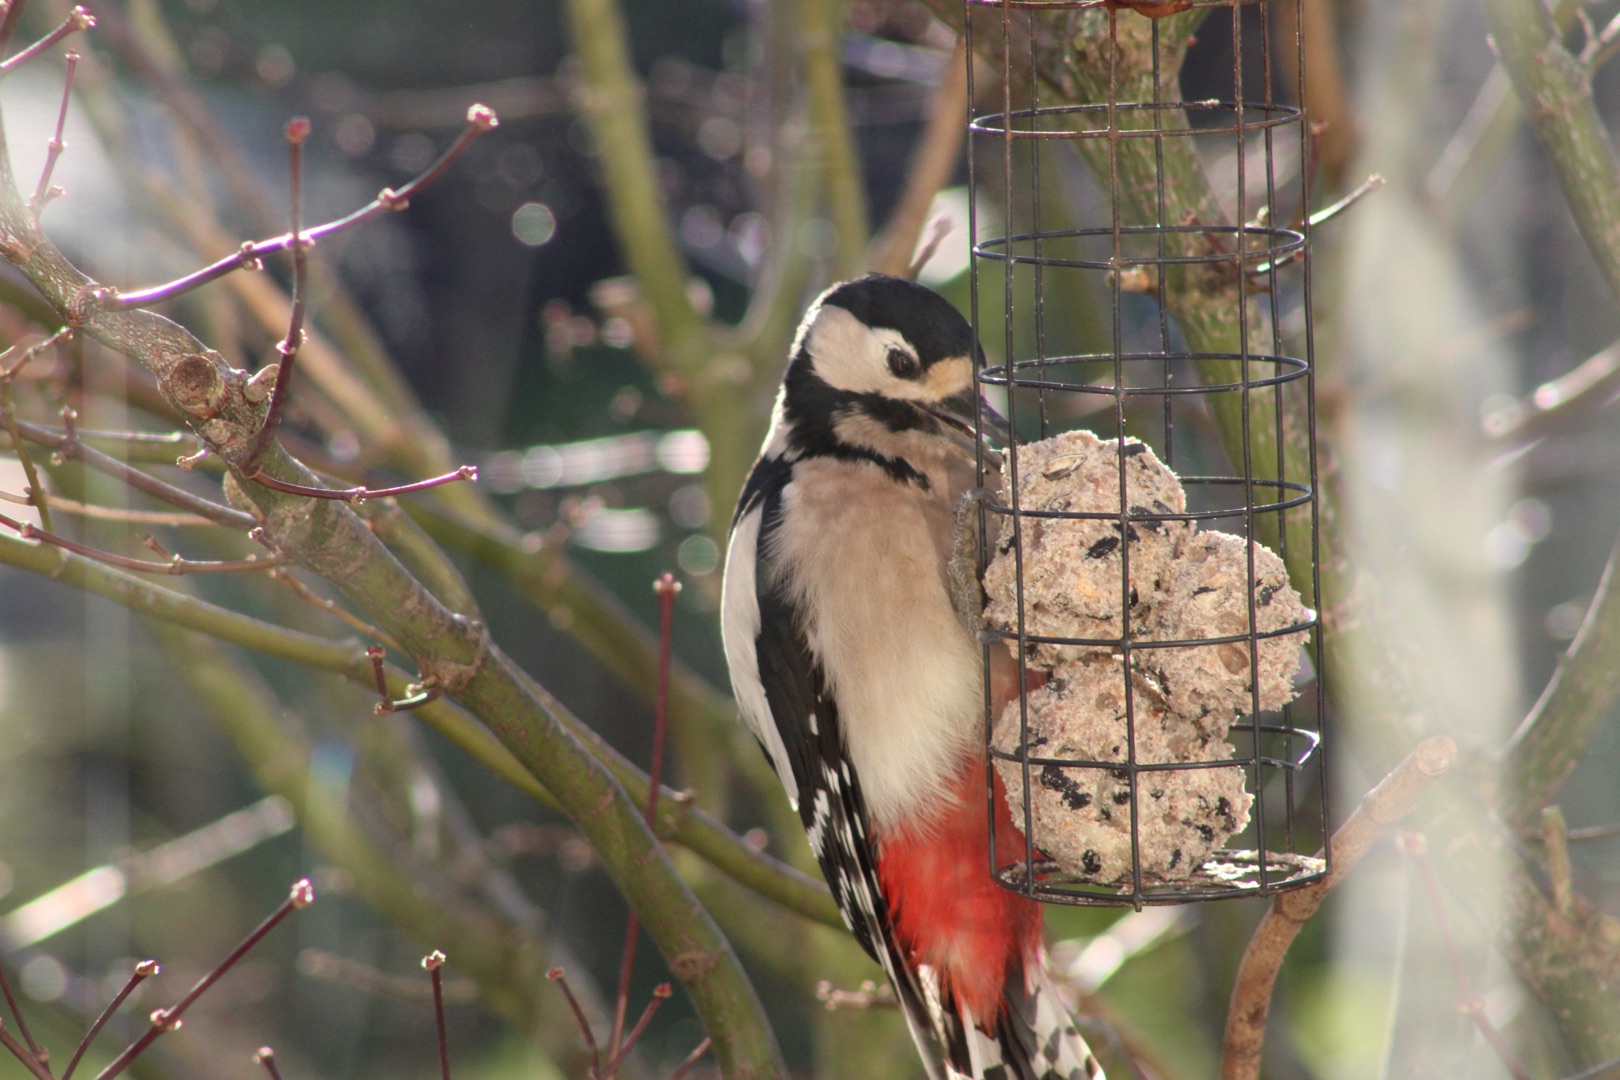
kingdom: Animalia
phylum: Chordata
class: Aves
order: Piciformes
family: Picidae
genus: Dendrocopos
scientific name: Dendrocopos major
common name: Stor flagspætte
